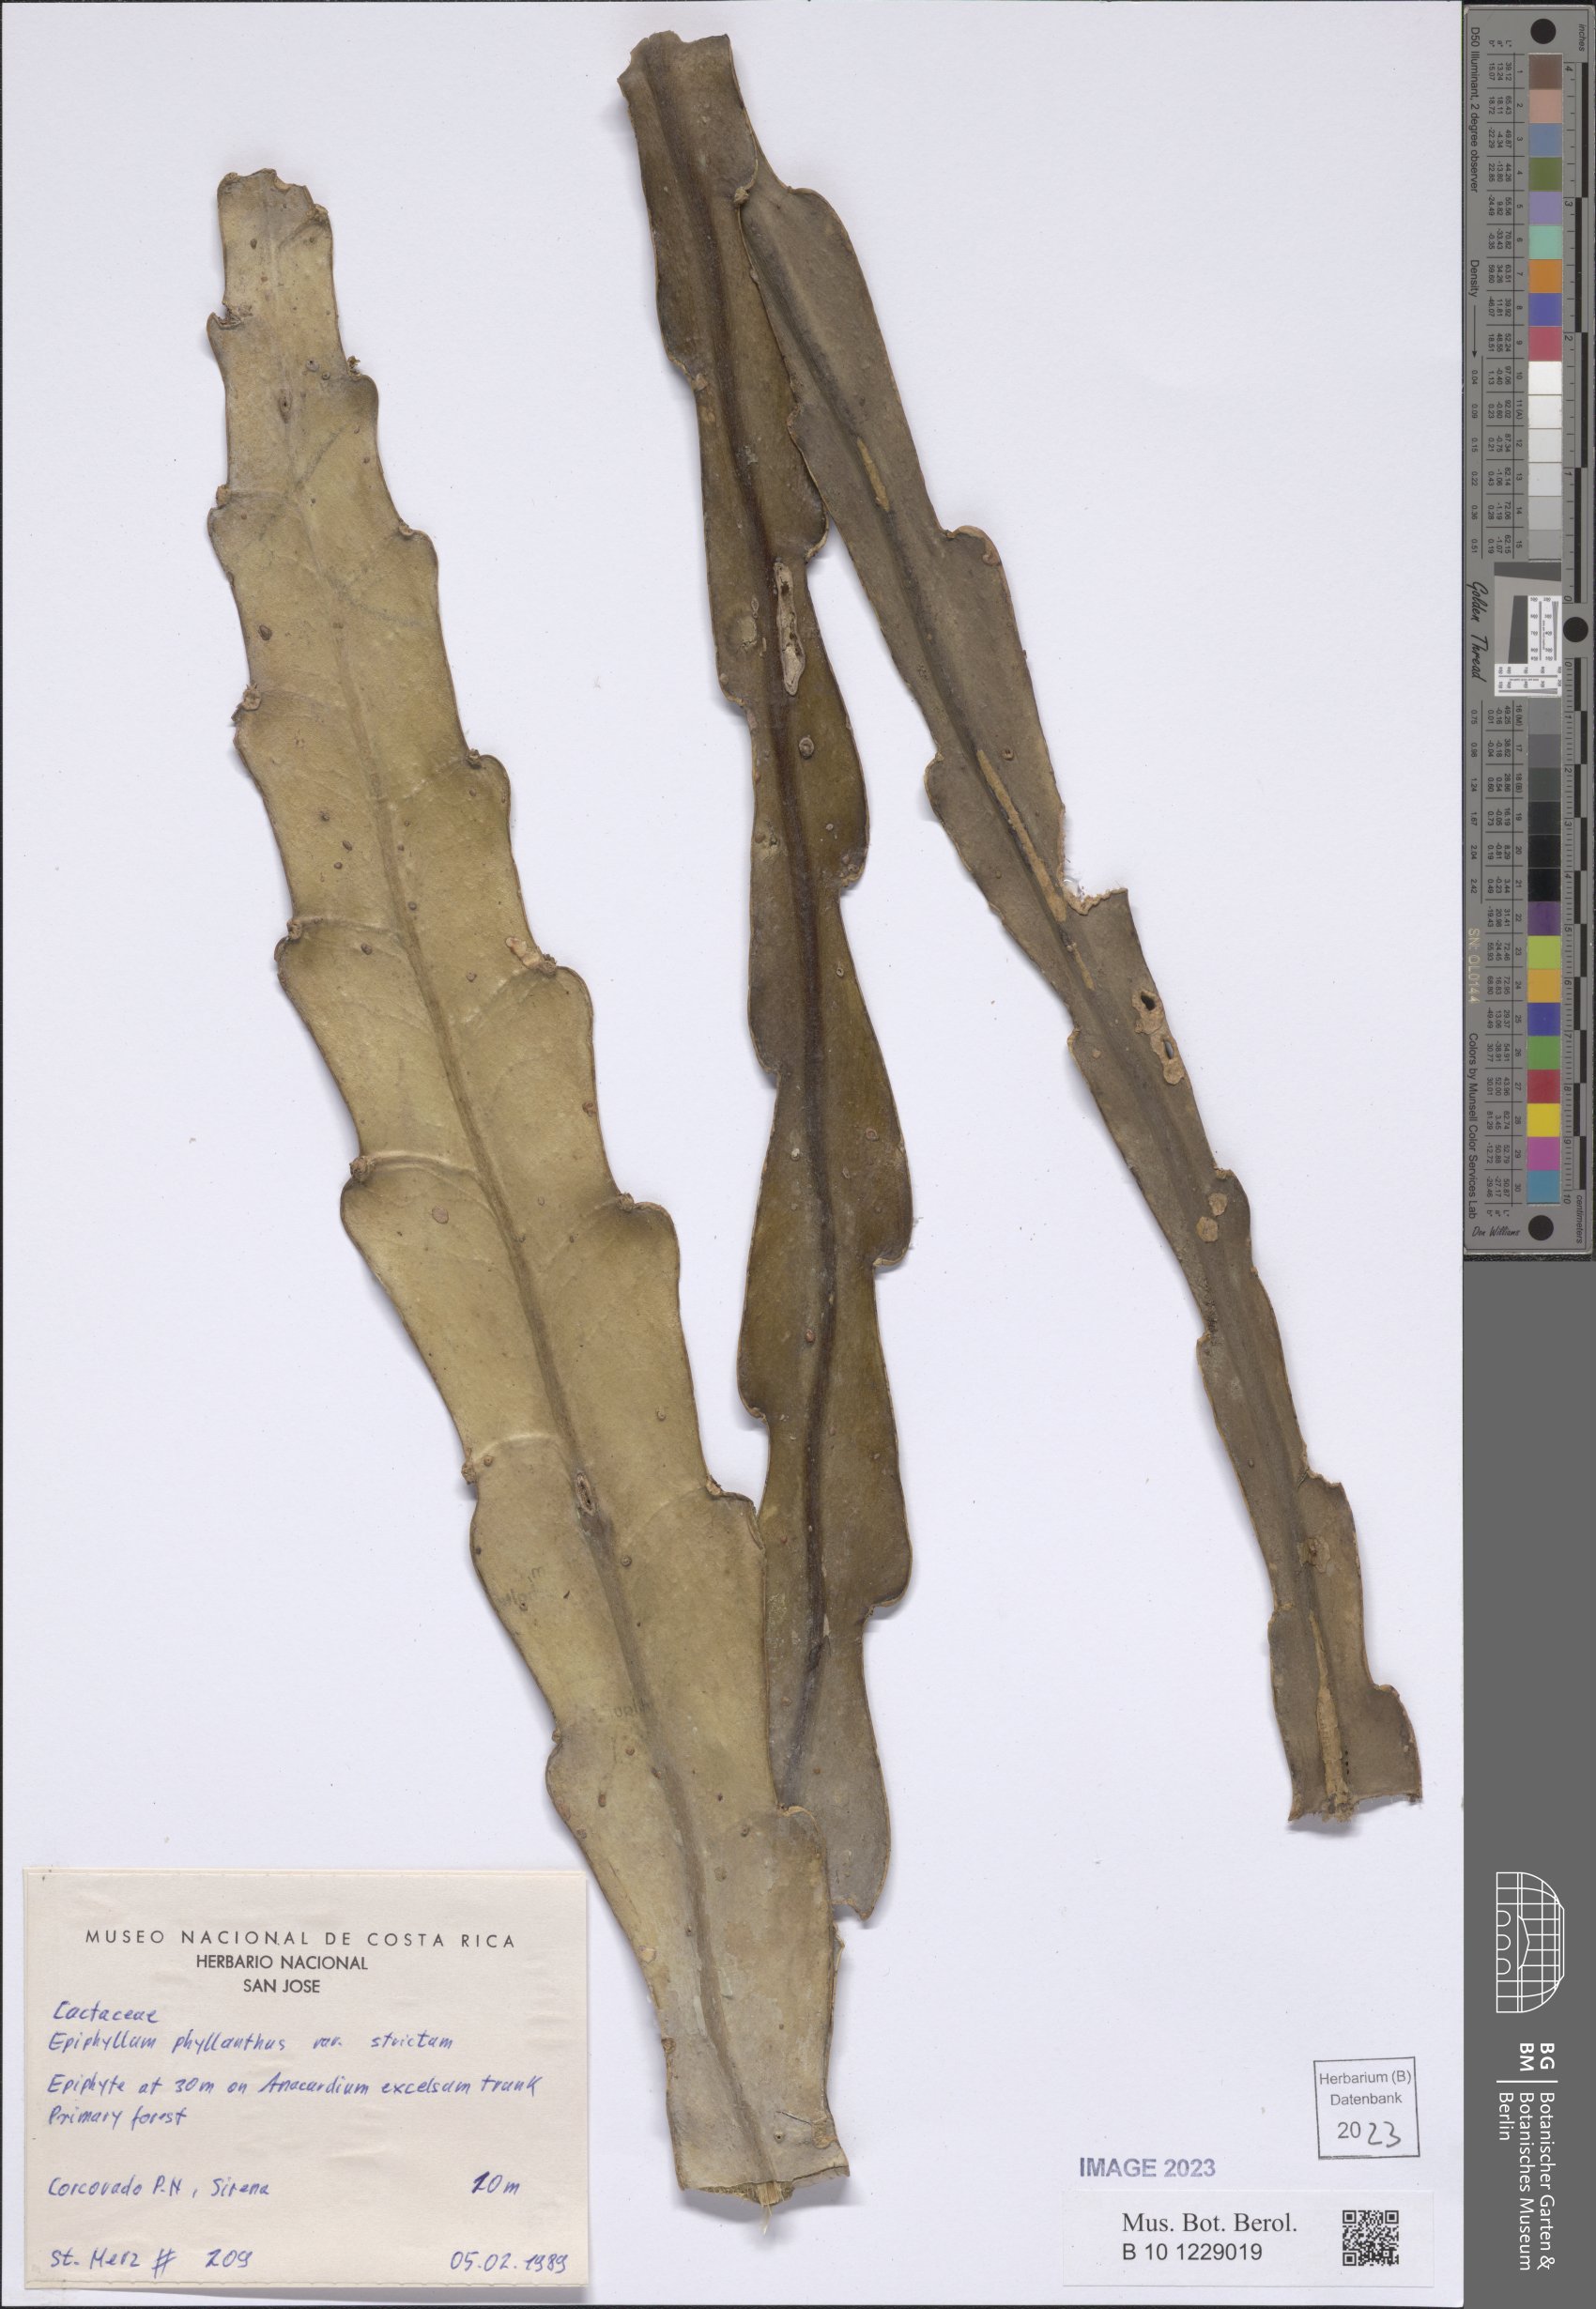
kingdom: Plantae
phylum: Tracheophyta
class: Magnoliopsida
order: Caryophyllales
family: Cactaceae
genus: Epiphyllum
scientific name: Epiphyllum phyllanthus
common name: Climbing cactus
